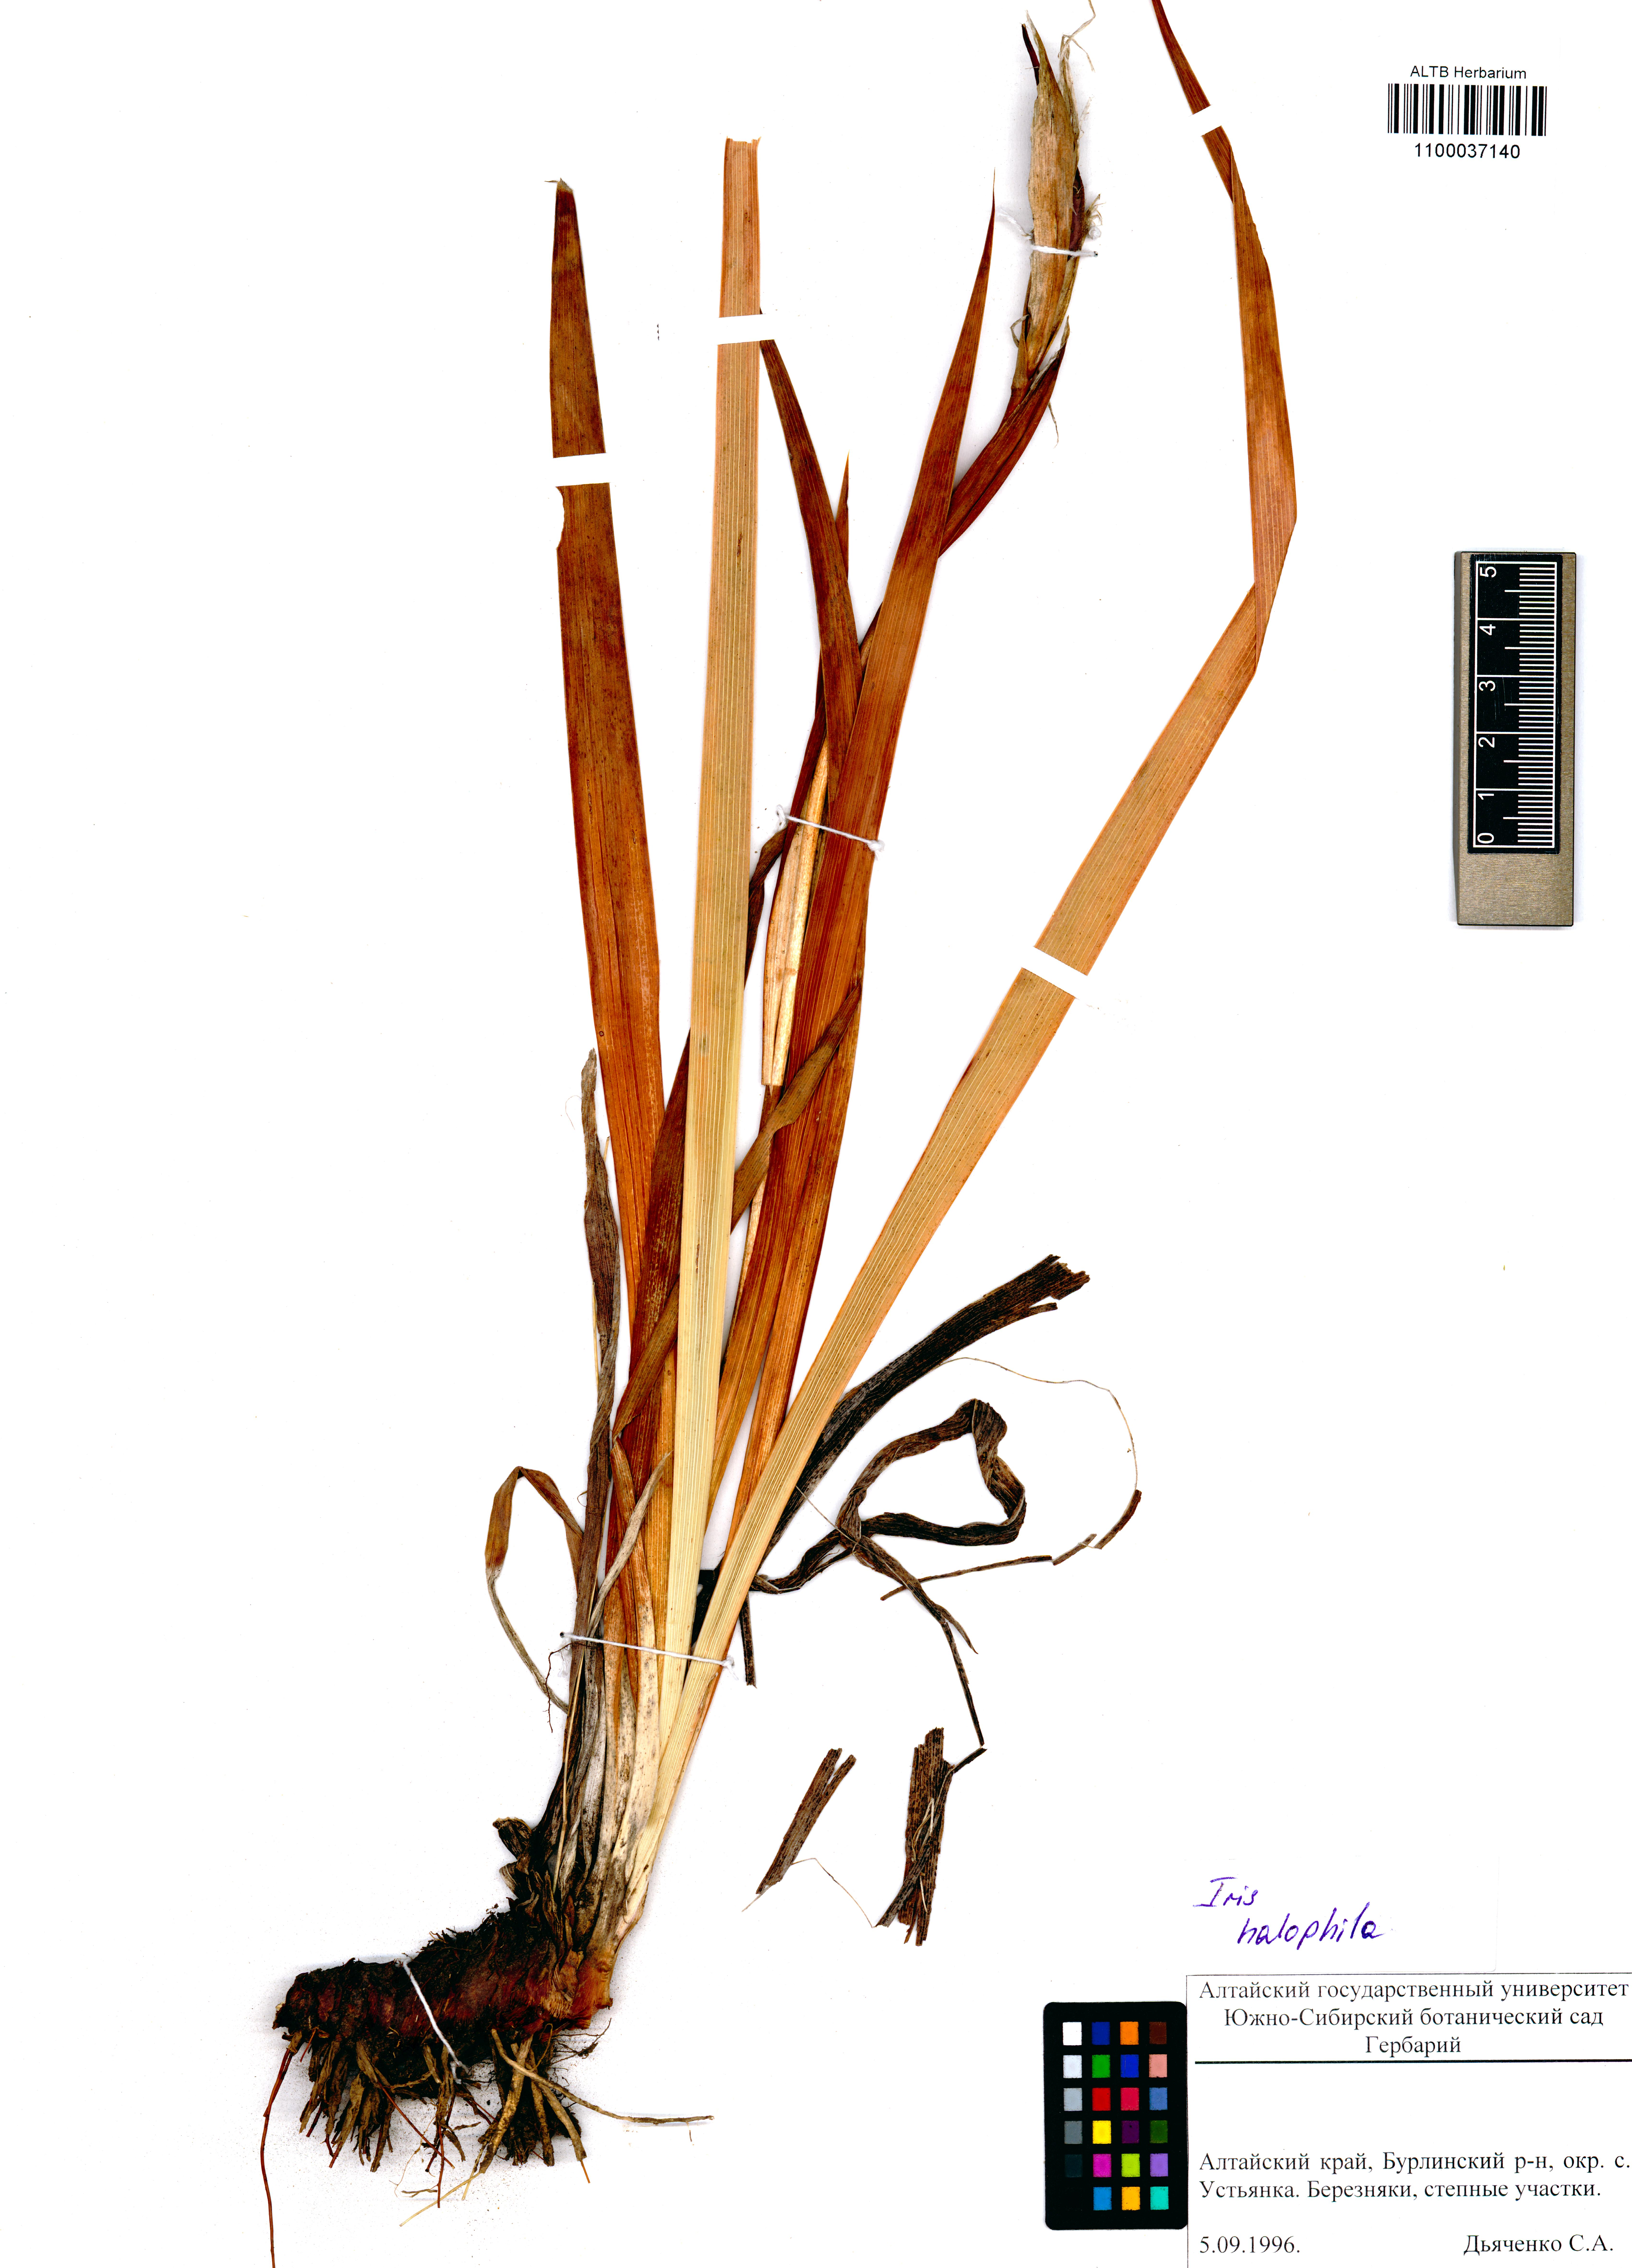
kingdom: Plantae
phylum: Tracheophyta
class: Liliopsida
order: Asparagales
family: Iridaceae
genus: Iris
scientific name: Iris halophila
